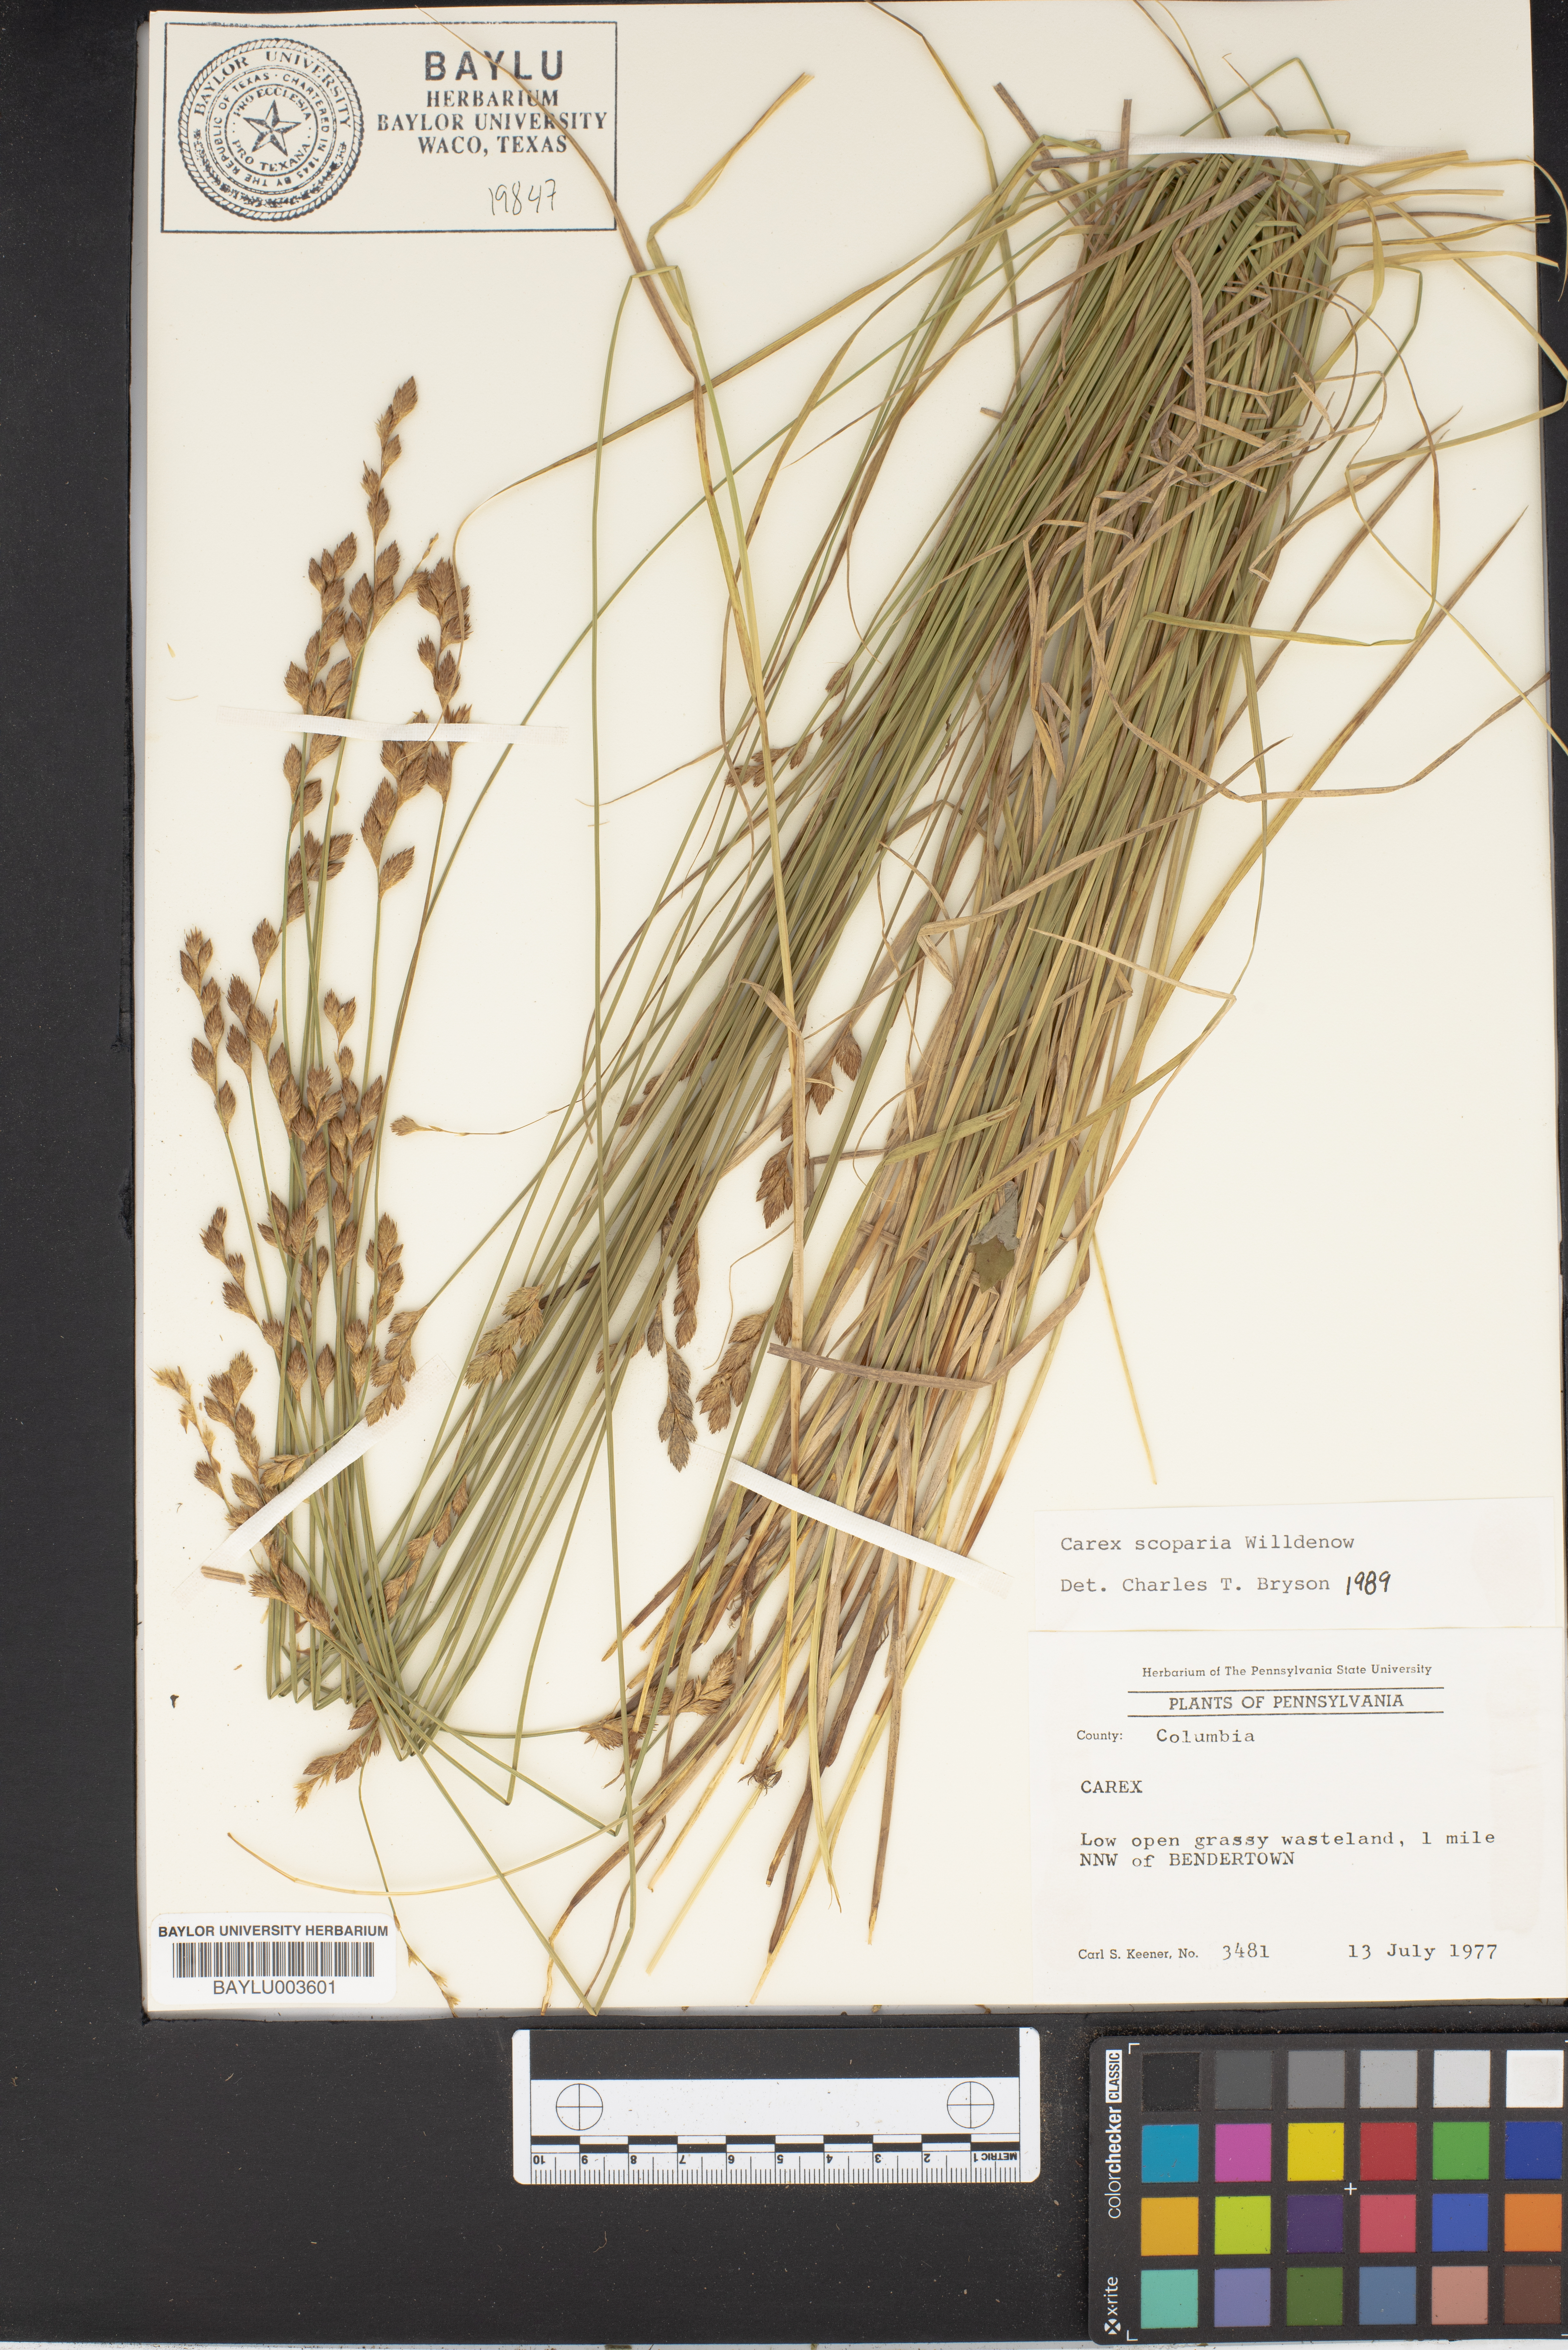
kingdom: Plantae
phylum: Tracheophyta
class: Liliopsida
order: Poales
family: Cyperaceae
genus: Carex
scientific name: Carex scoparia
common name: Broom sedge
